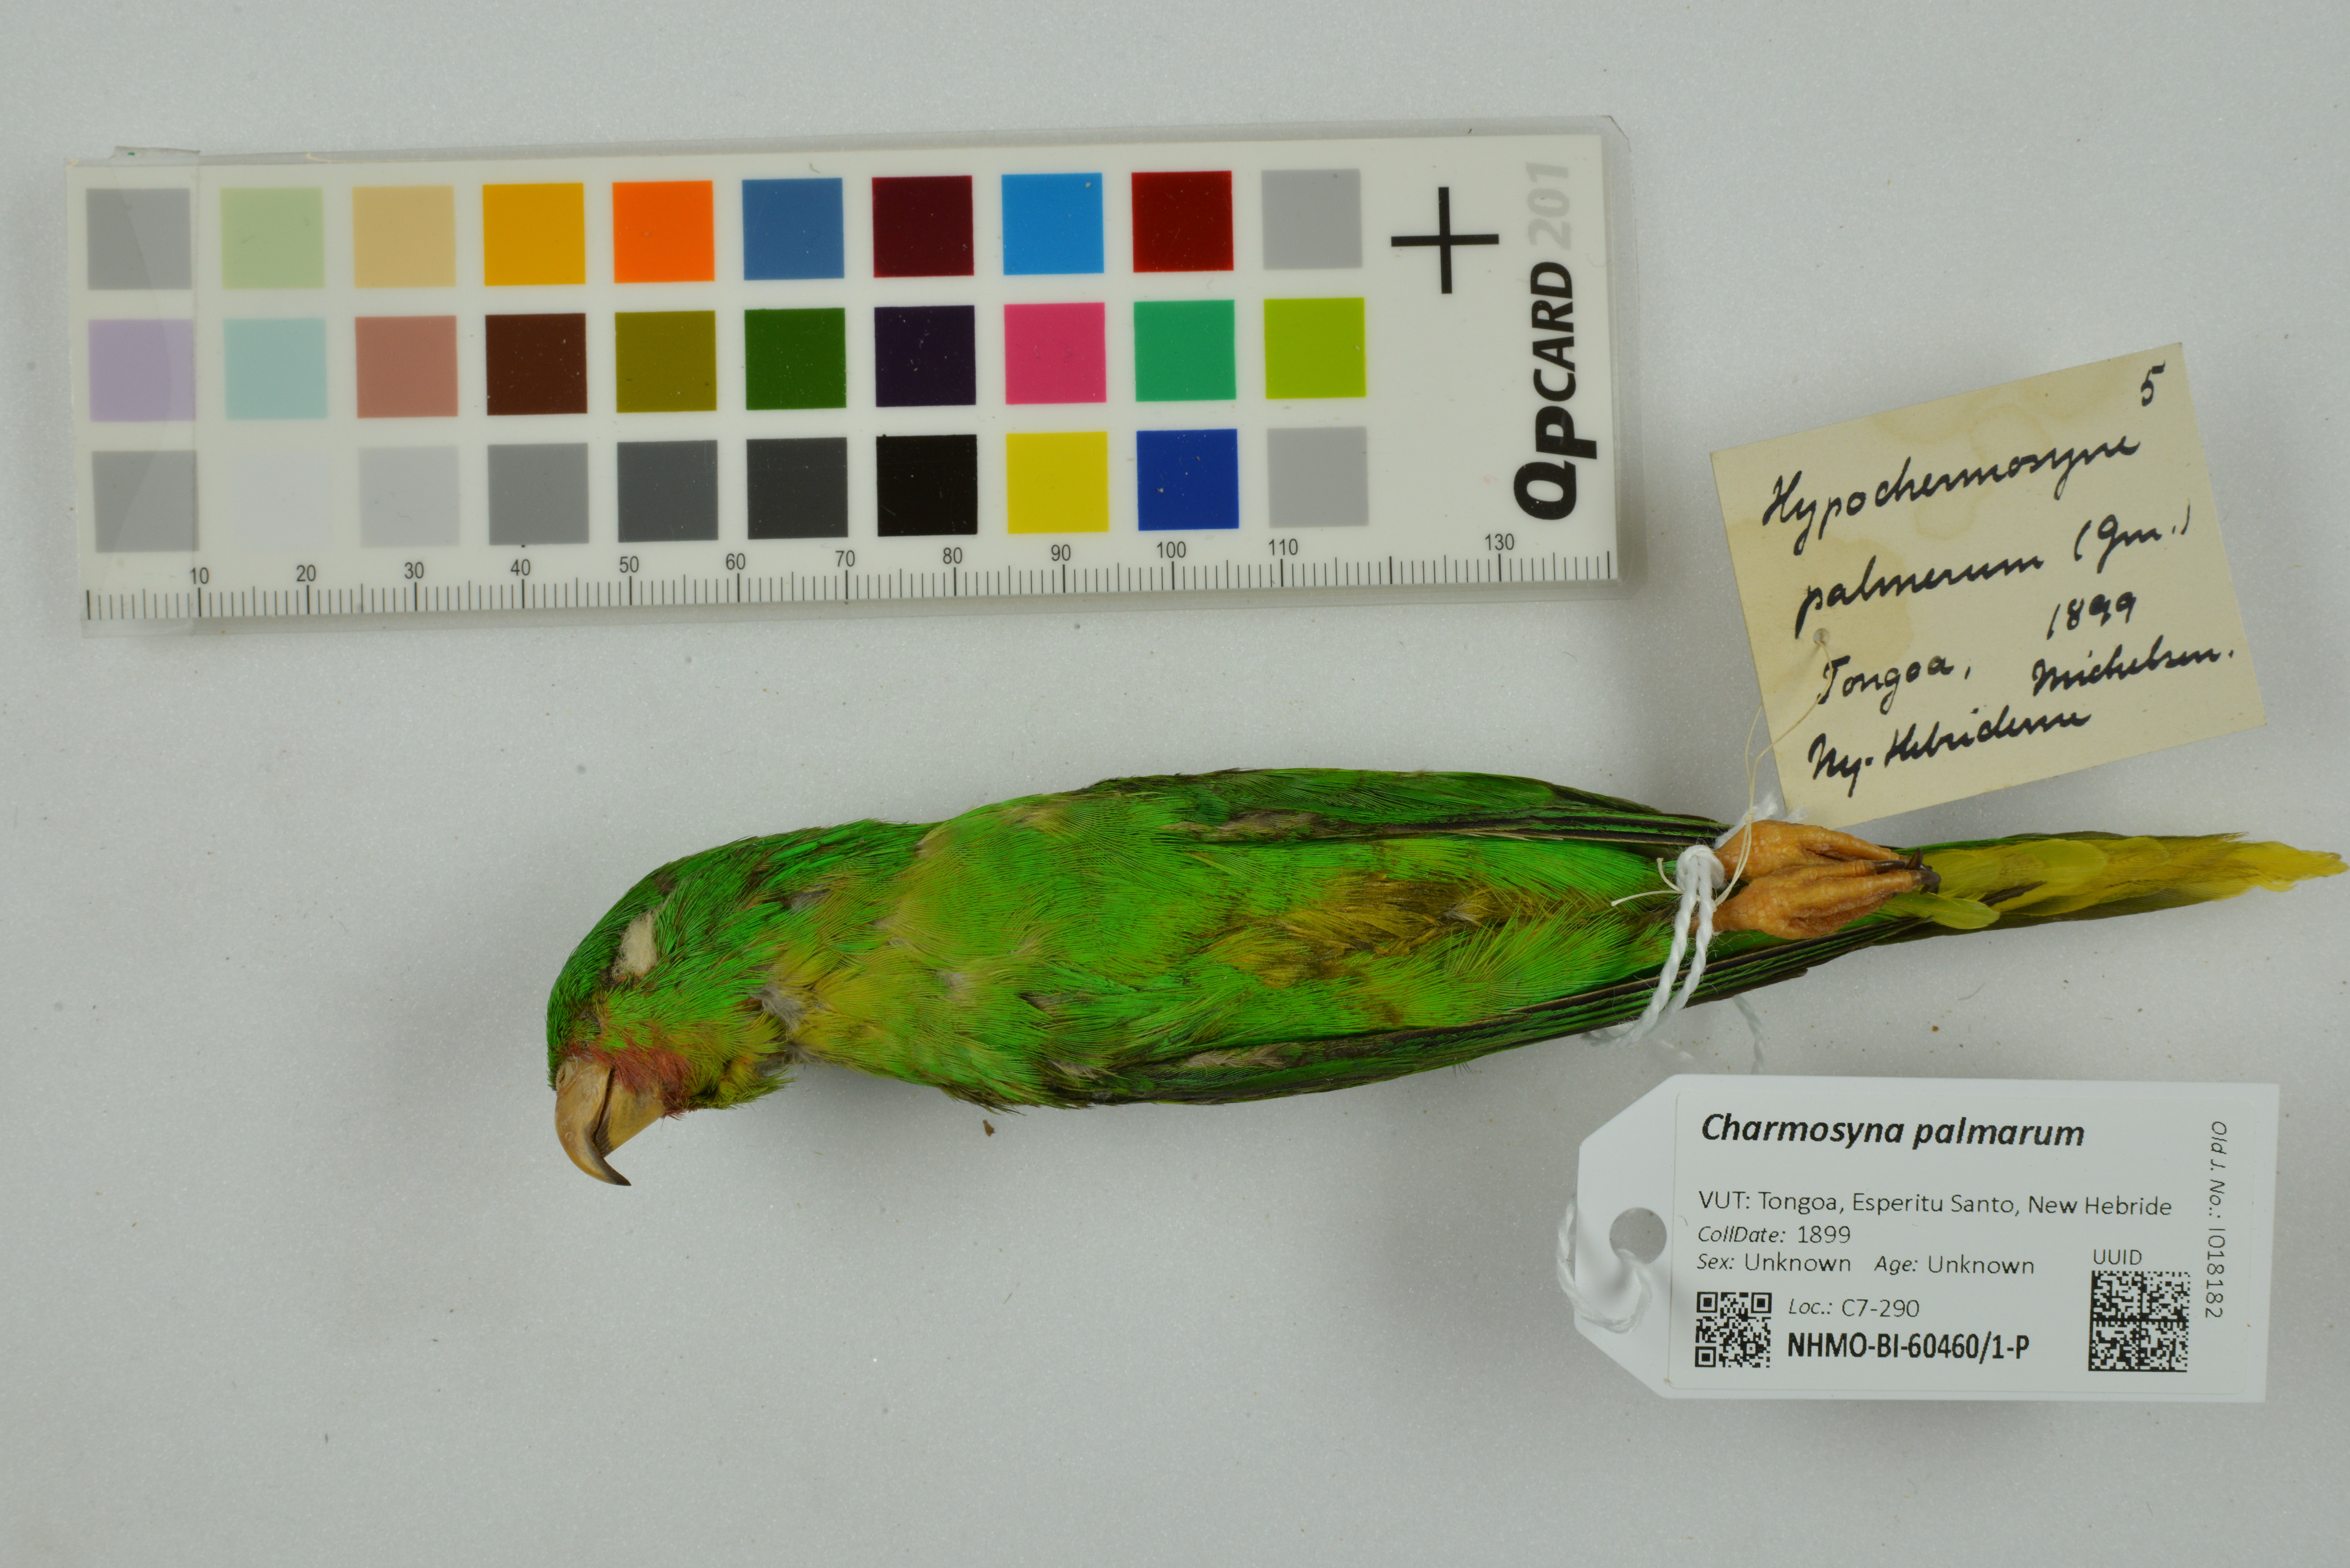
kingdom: Animalia
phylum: Chordata
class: Aves
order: Psittaciformes
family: Psittacidae
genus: Charmosyna
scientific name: Charmosyna palmarum
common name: Palm lorikeet
